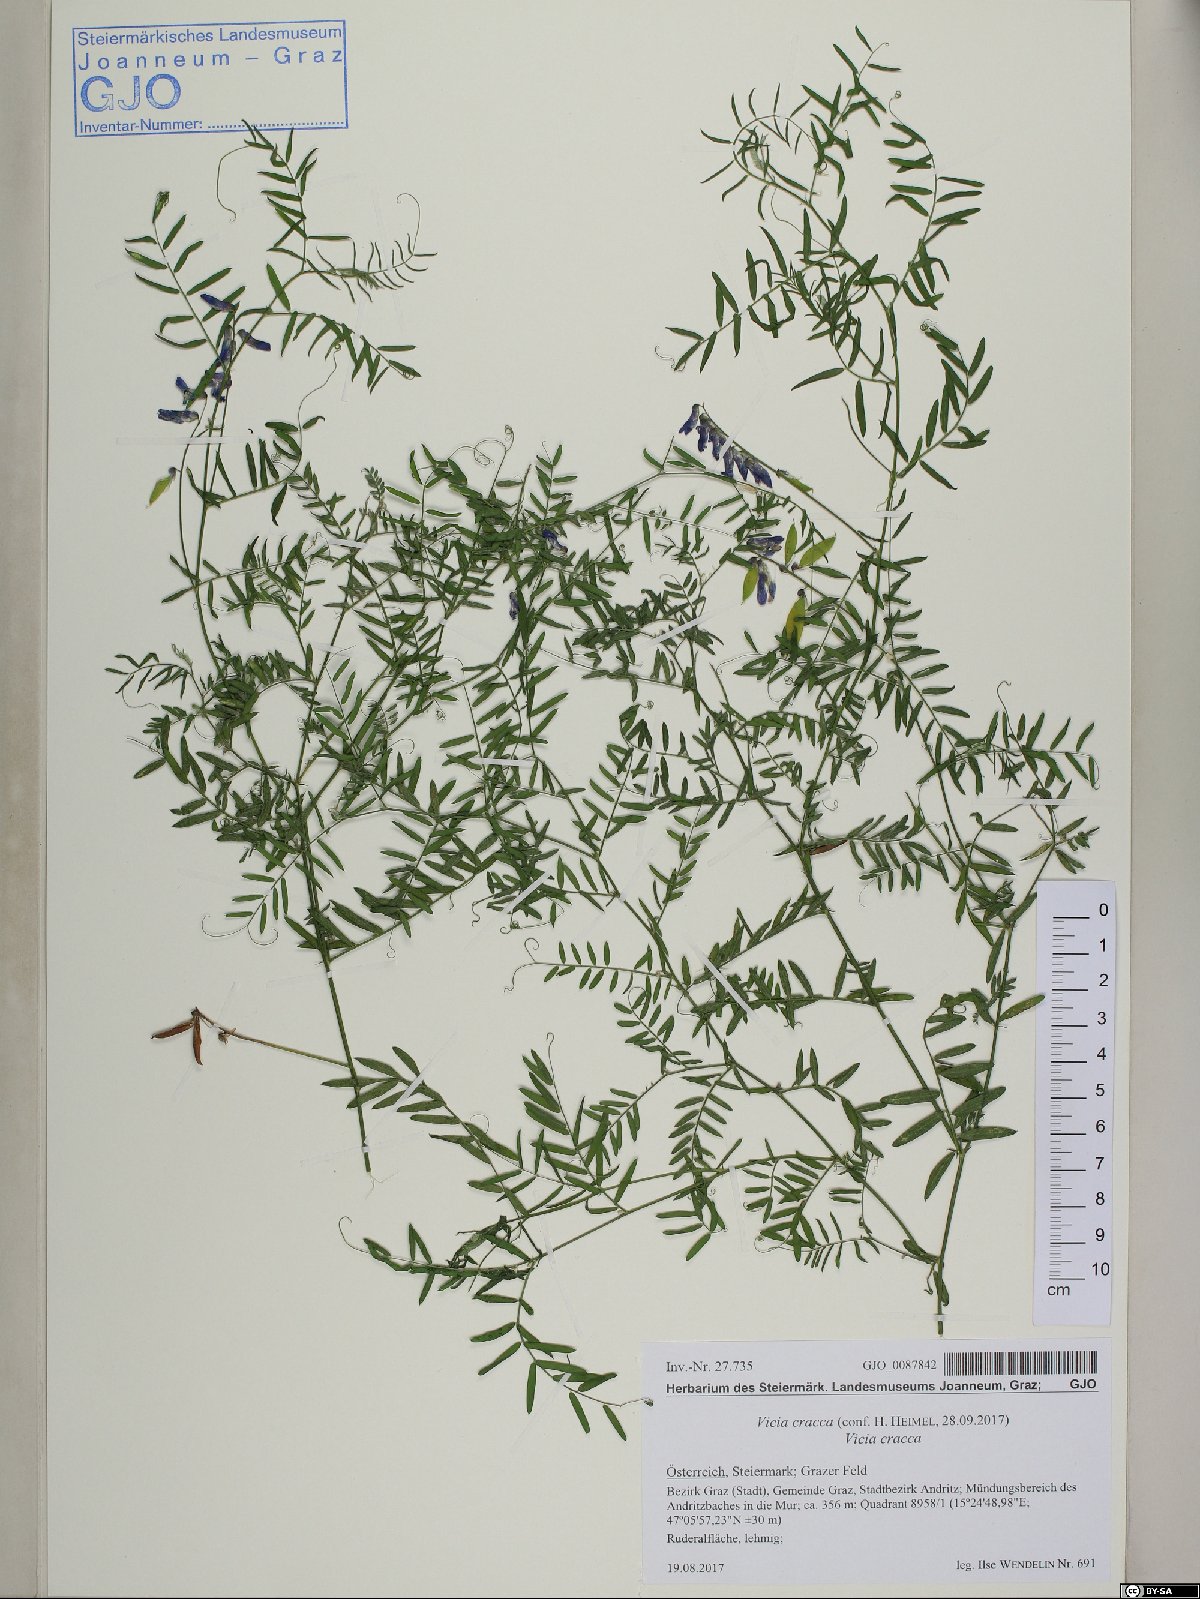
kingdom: Plantae
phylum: Tracheophyta
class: Magnoliopsida
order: Fabales
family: Fabaceae
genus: Vicia
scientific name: Vicia cracca
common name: Bird vetch
